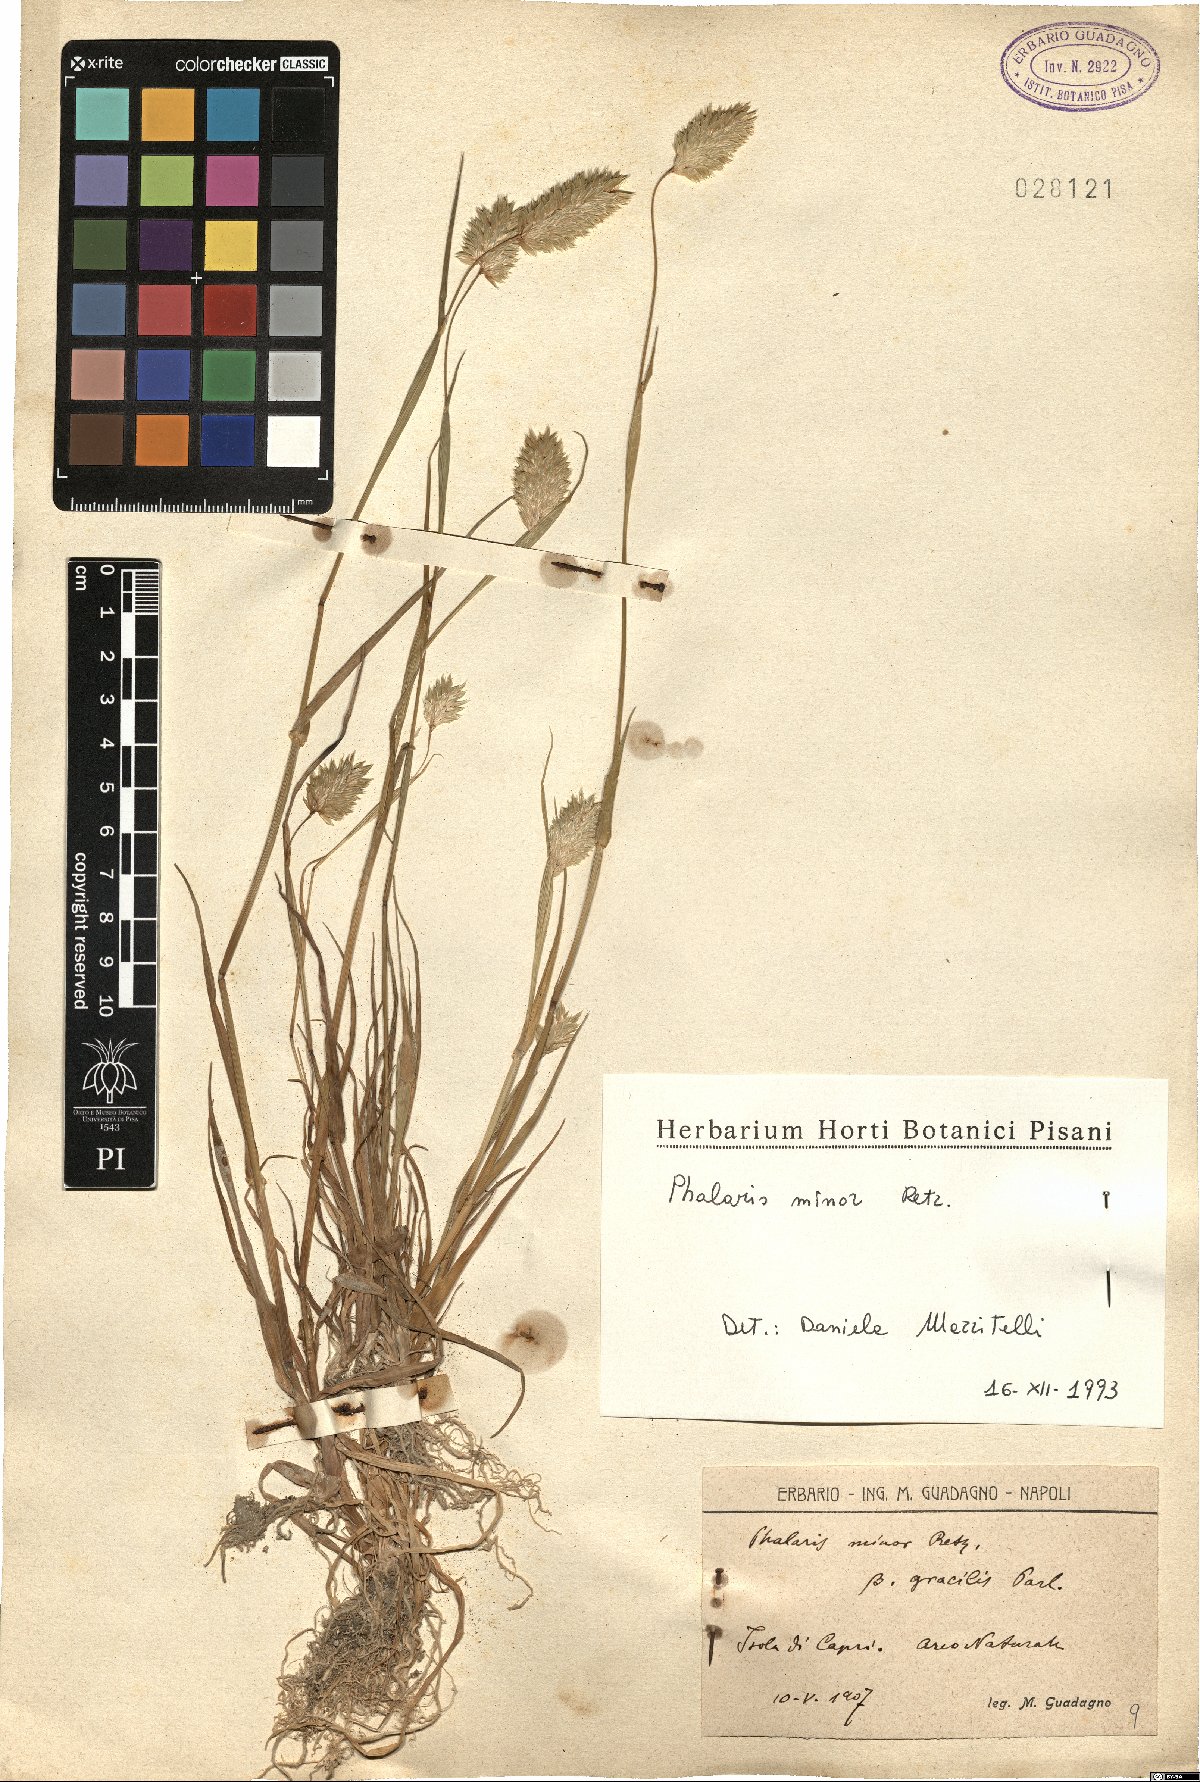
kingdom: Plantae
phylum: Tracheophyta
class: Liliopsida
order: Poales
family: Poaceae
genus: Phalaris
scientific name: Phalaris minor
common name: Littleseed canarygrass
